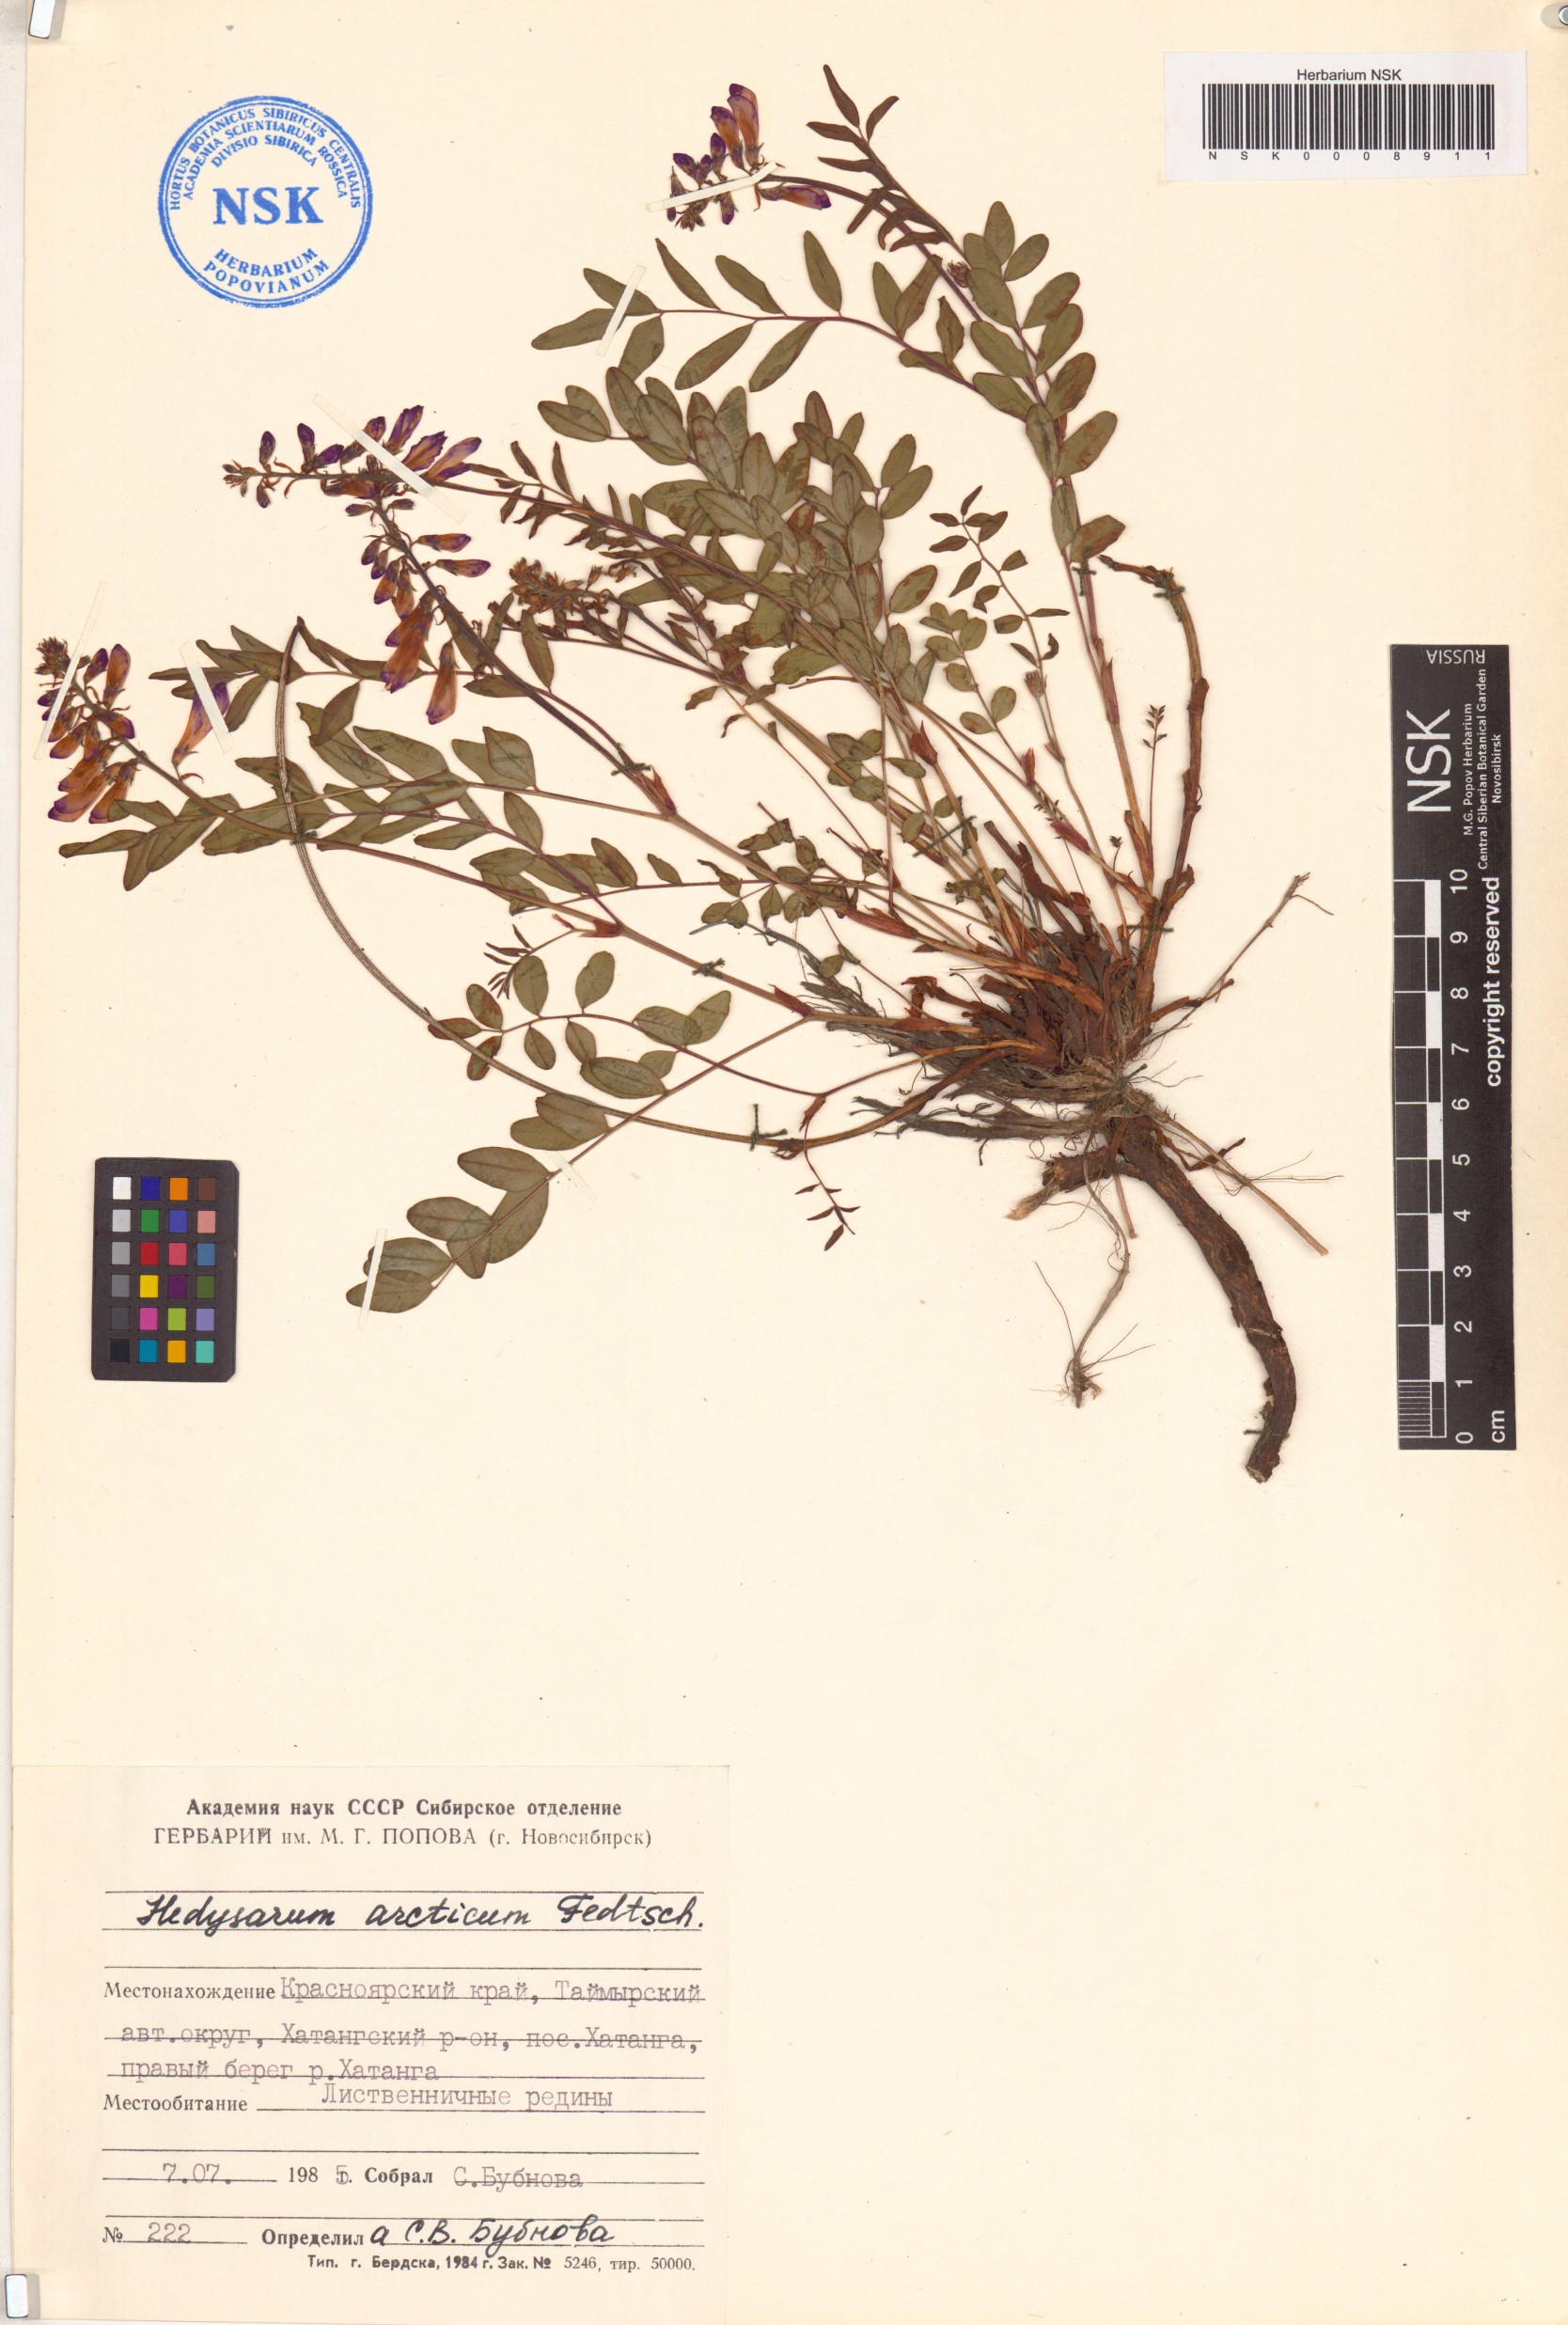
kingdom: Plantae
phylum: Tracheophyta
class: Magnoliopsida
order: Fabales
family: Fabaceae
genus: Hedysarum
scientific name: Hedysarum hedysaroides
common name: Alpine french-honeysuckle
